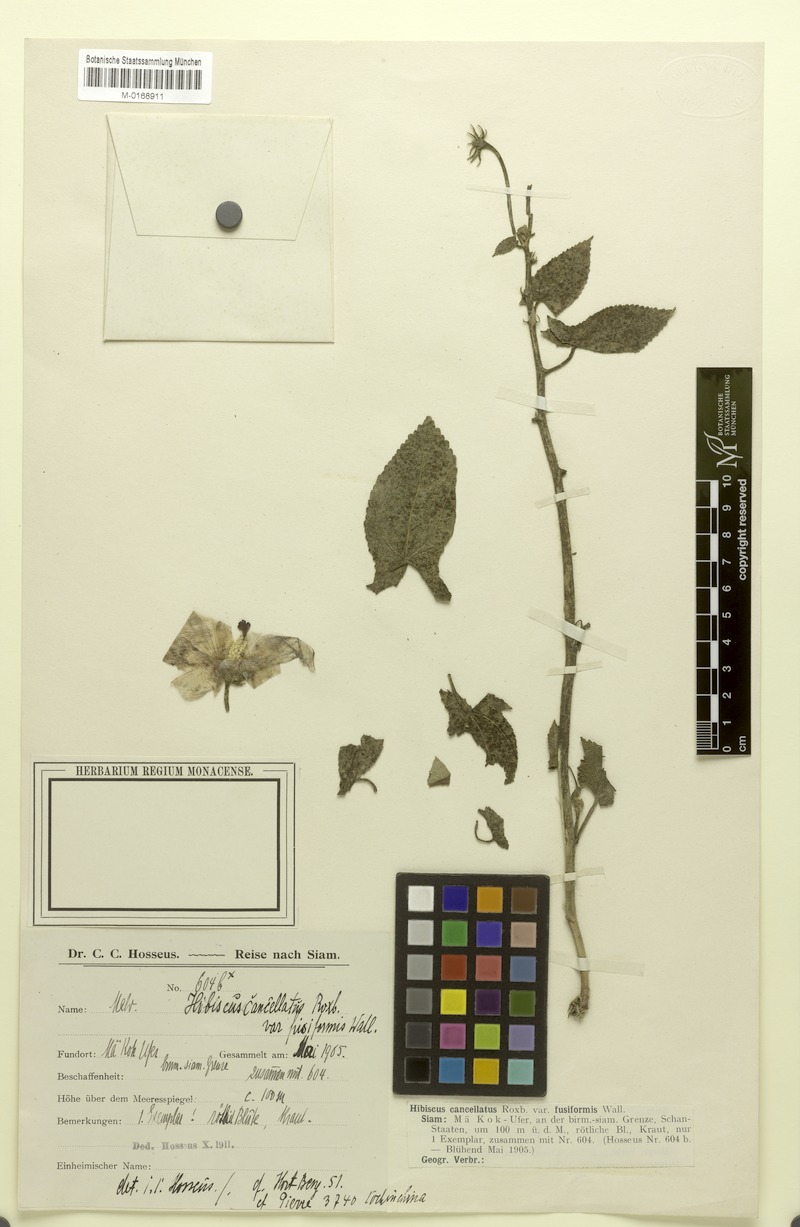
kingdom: Plantae
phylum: Tracheophyta
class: Magnoliopsida
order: Malvales
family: Malvaceae
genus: Abelmoschus
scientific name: Abelmoschus crinitus
